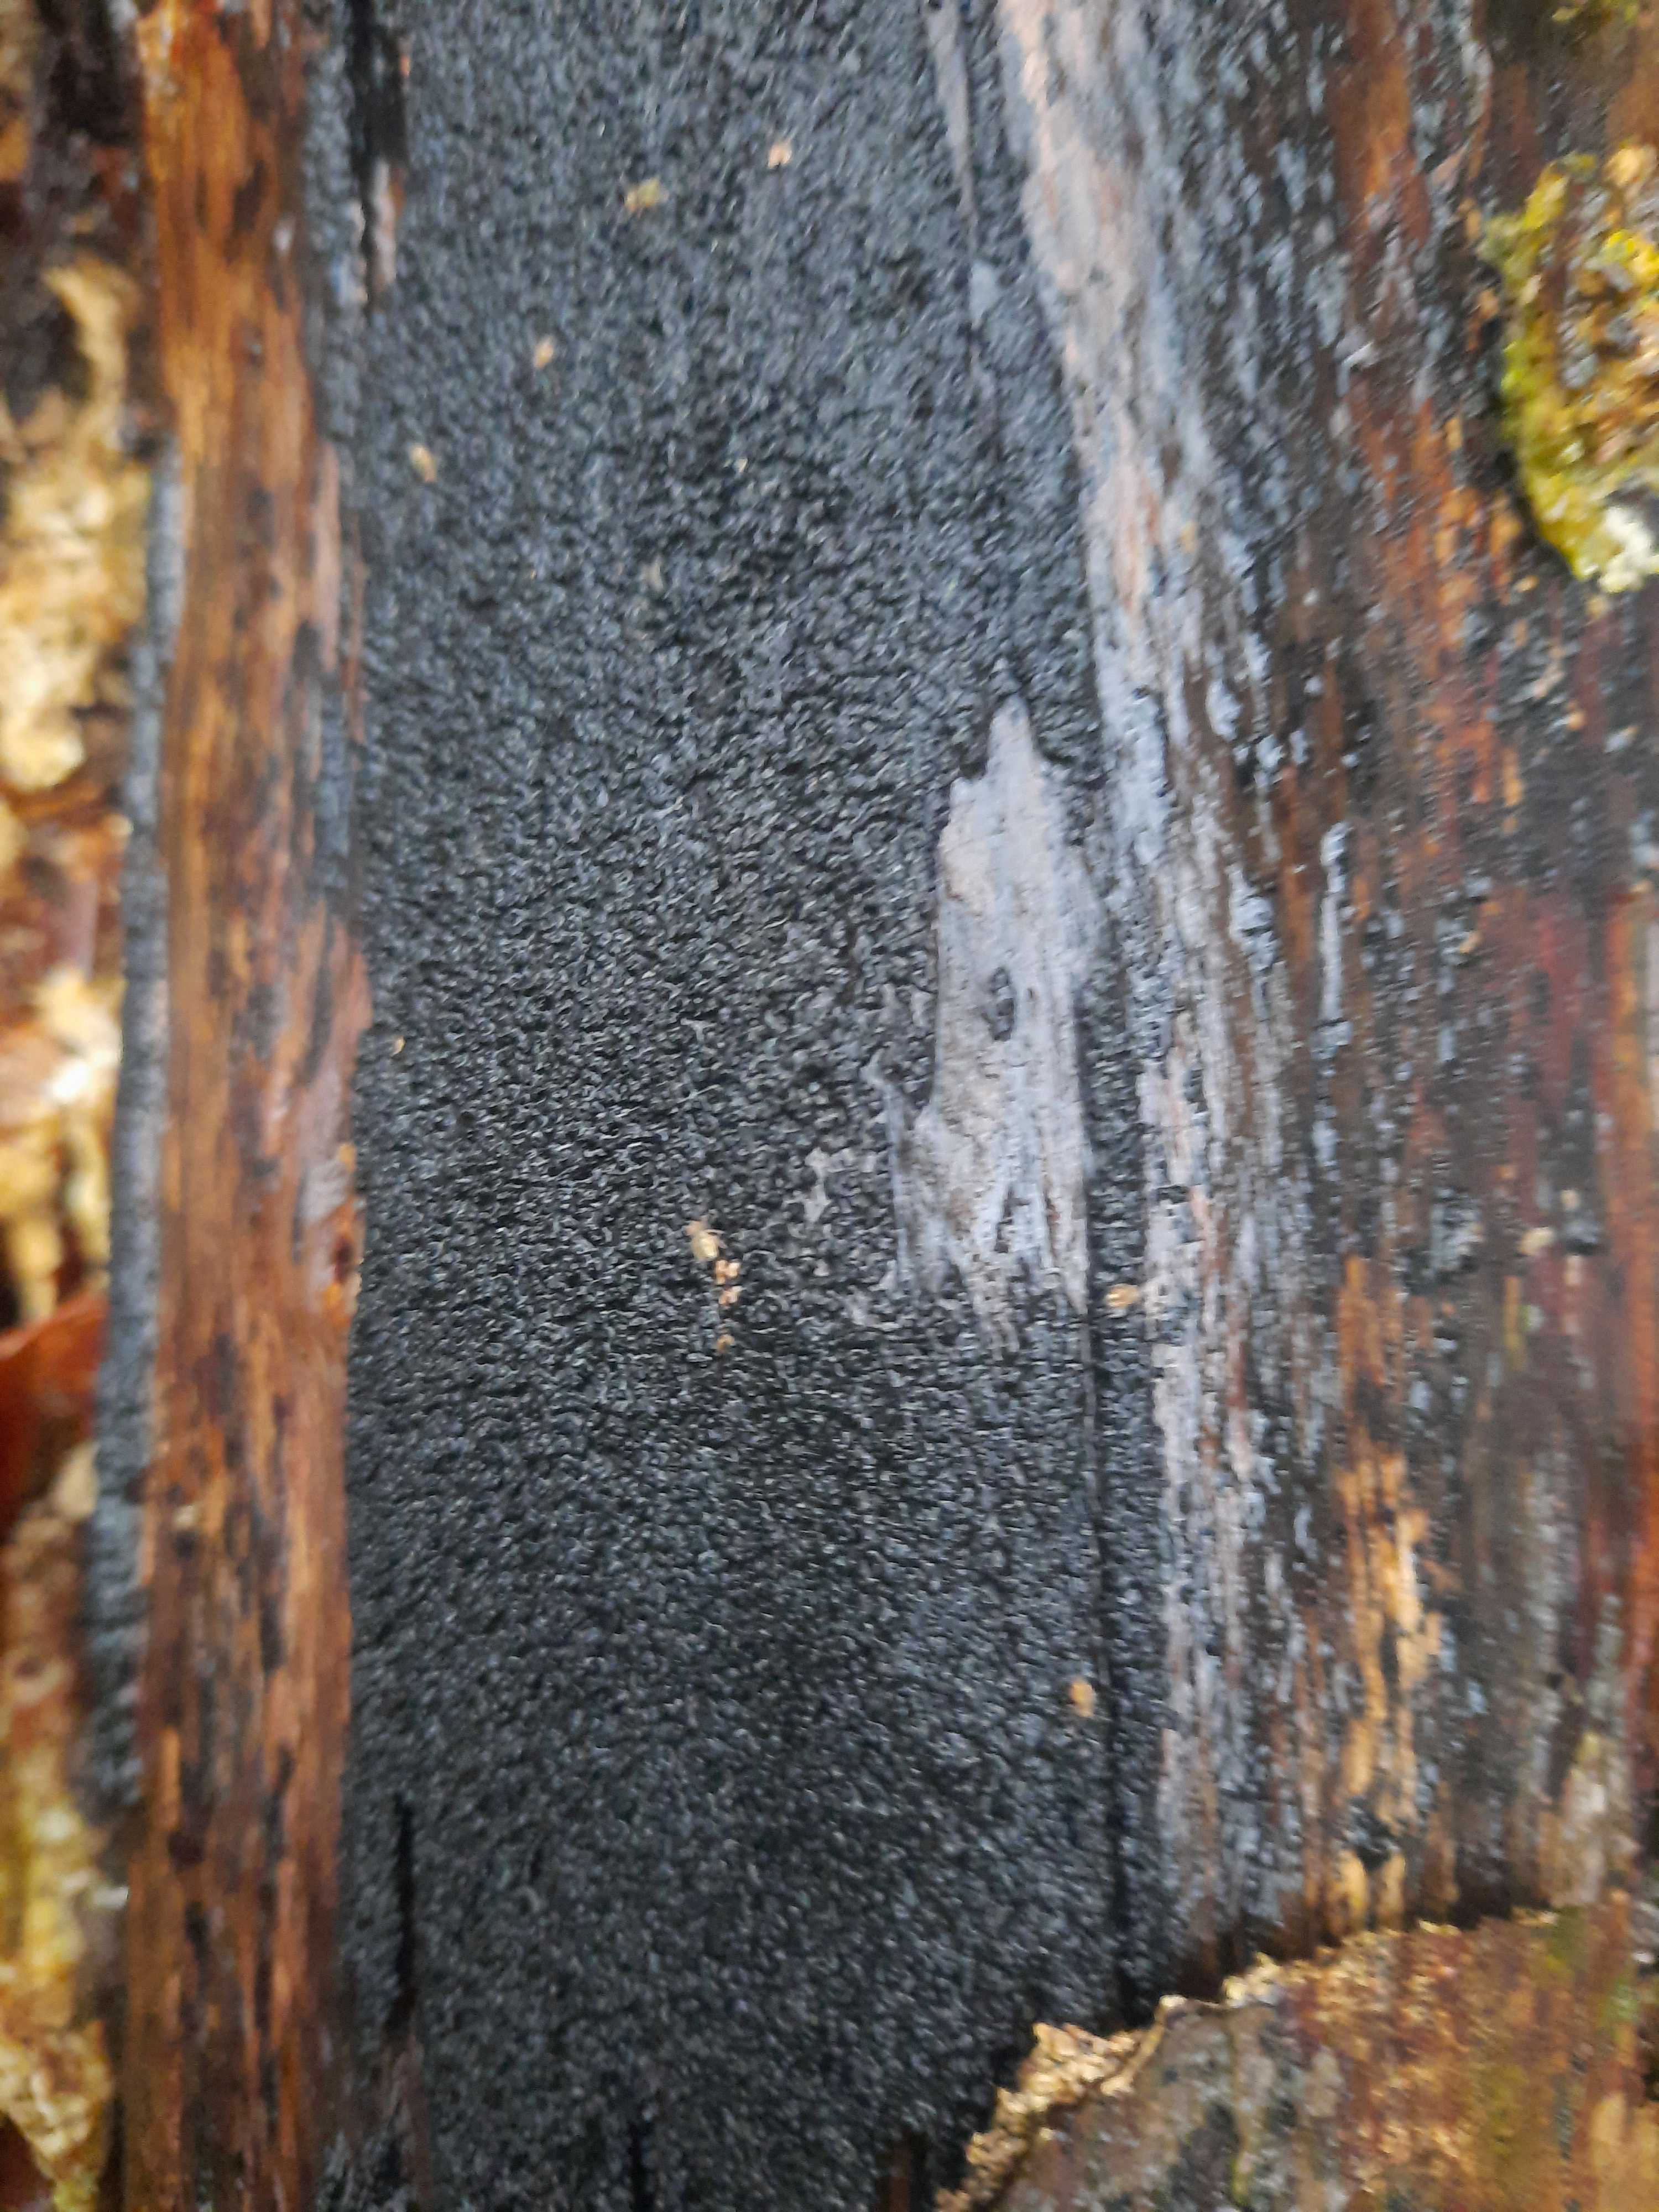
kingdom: Fungi
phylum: Ascomycota
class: Sordariomycetes
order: Xylariales
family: Diatrypaceae
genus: Eutypa
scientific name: Eutypa spinosa
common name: grov kulskorpe
